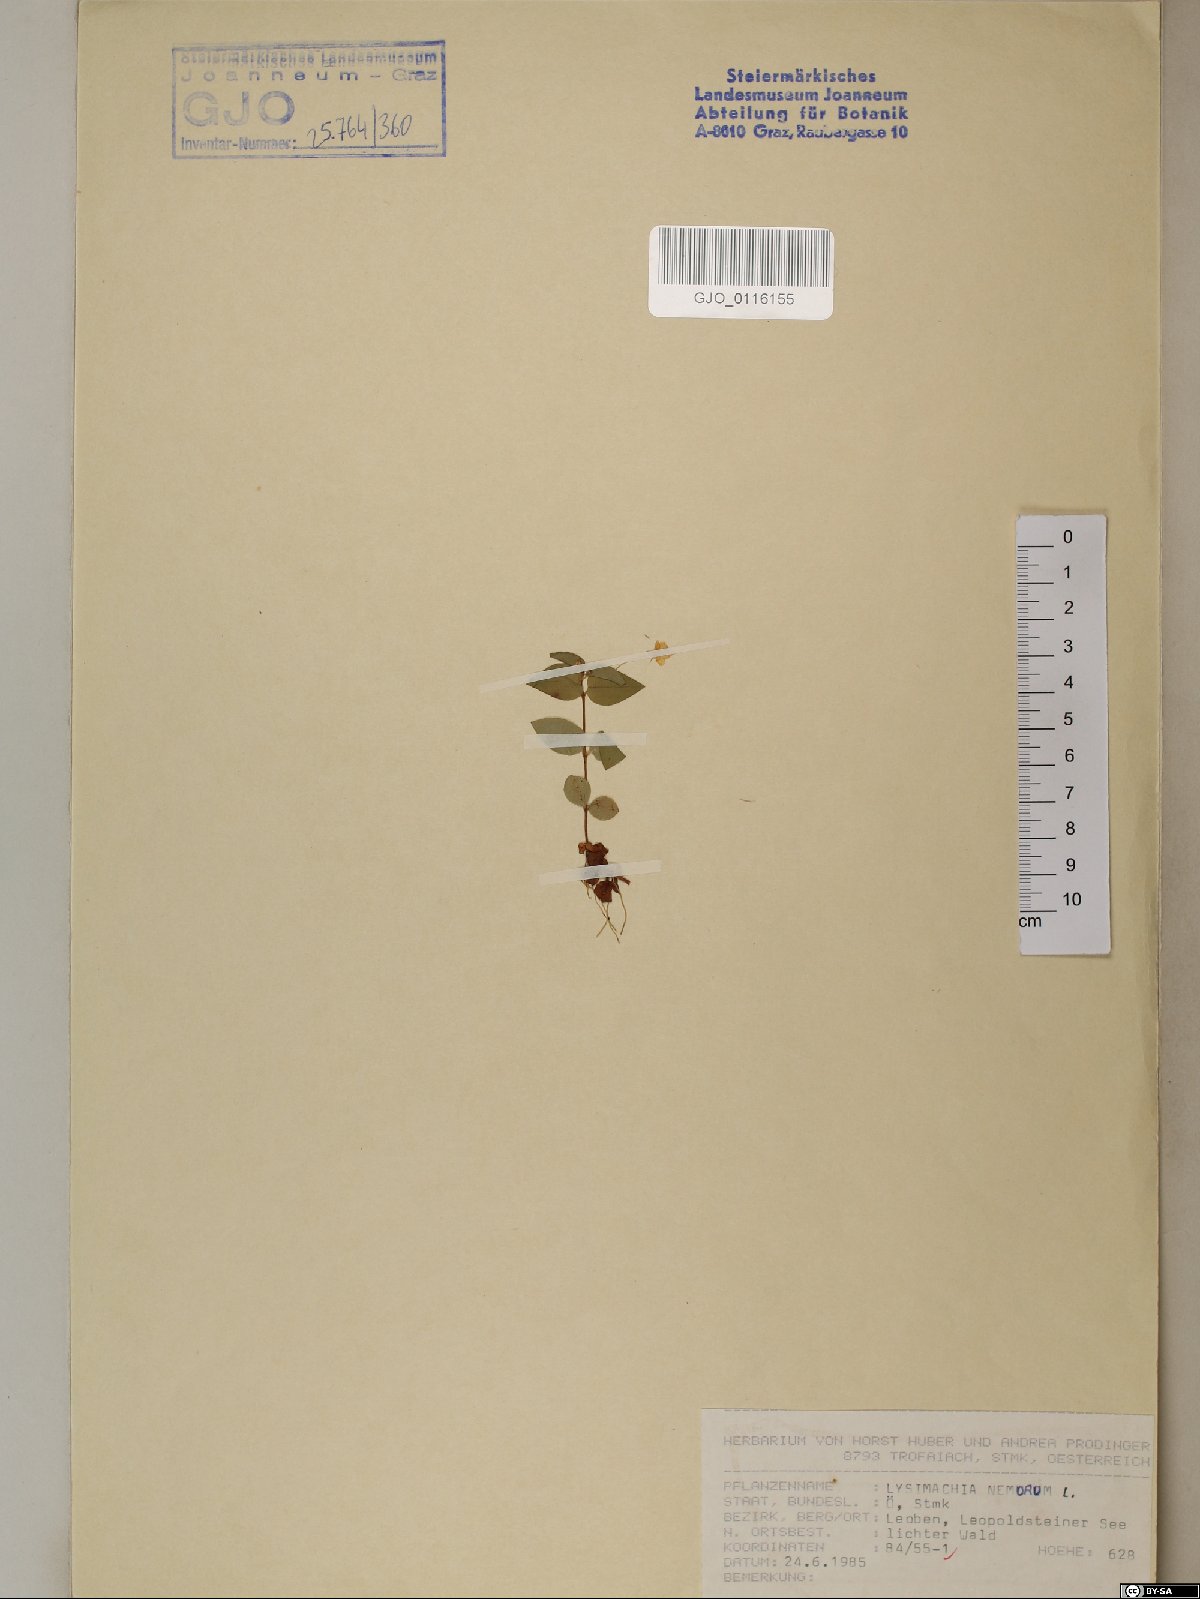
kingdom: Plantae
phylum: Tracheophyta
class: Magnoliopsida
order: Ericales
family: Primulaceae
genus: Lysimachia
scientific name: Lysimachia nemorum
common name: Yellow pimpernel
